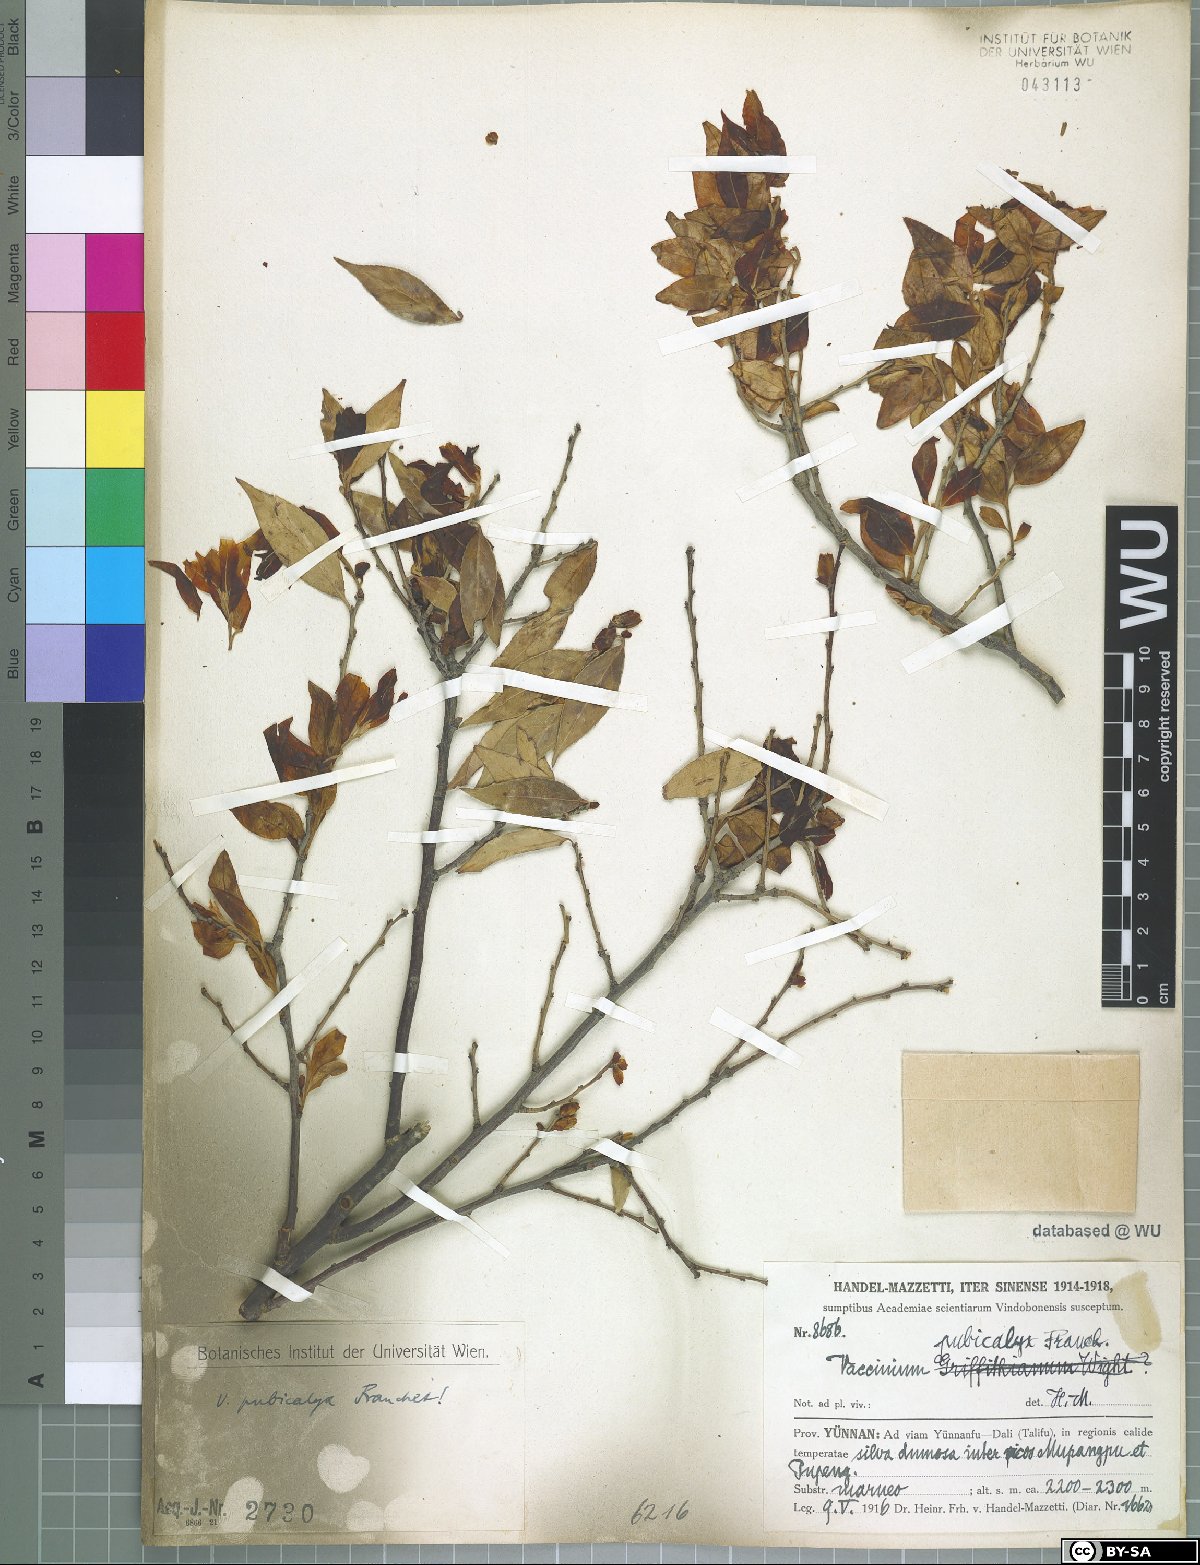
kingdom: Plantae
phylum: Tracheophyta
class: Magnoliopsida
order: Ericales
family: Ericaceae
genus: Vaccinium
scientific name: Vaccinium pubicalyx
